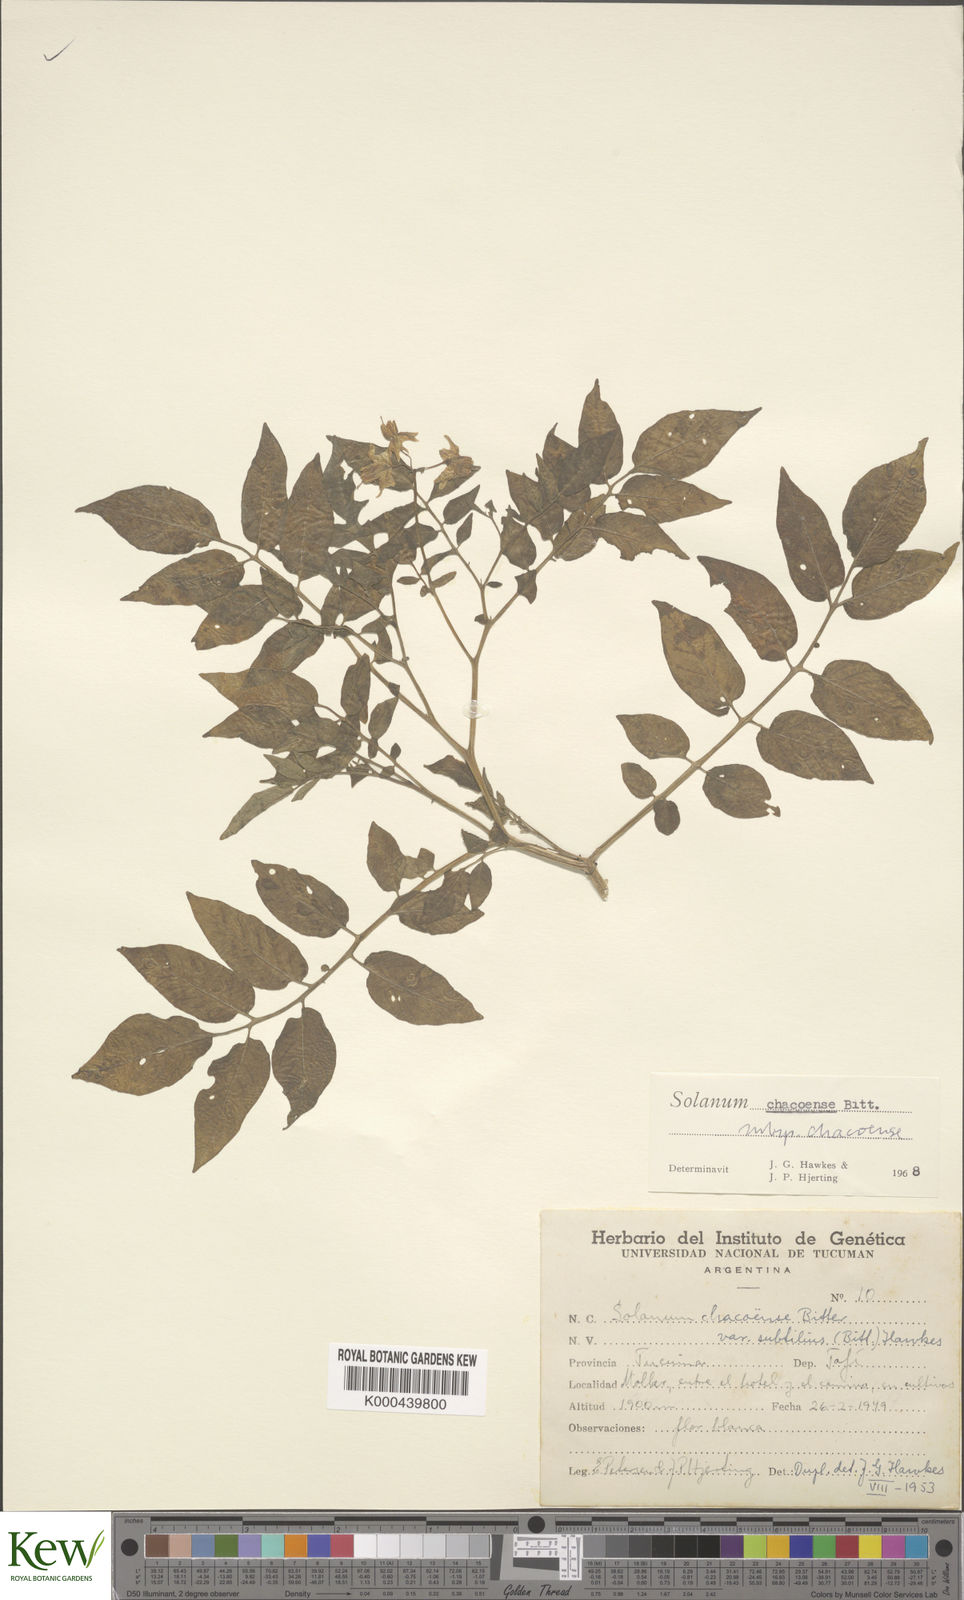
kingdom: Plantae
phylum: Tracheophyta
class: Magnoliopsida
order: Solanales
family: Solanaceae
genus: Solanum
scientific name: Solanum chacoense
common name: Chaco potato
